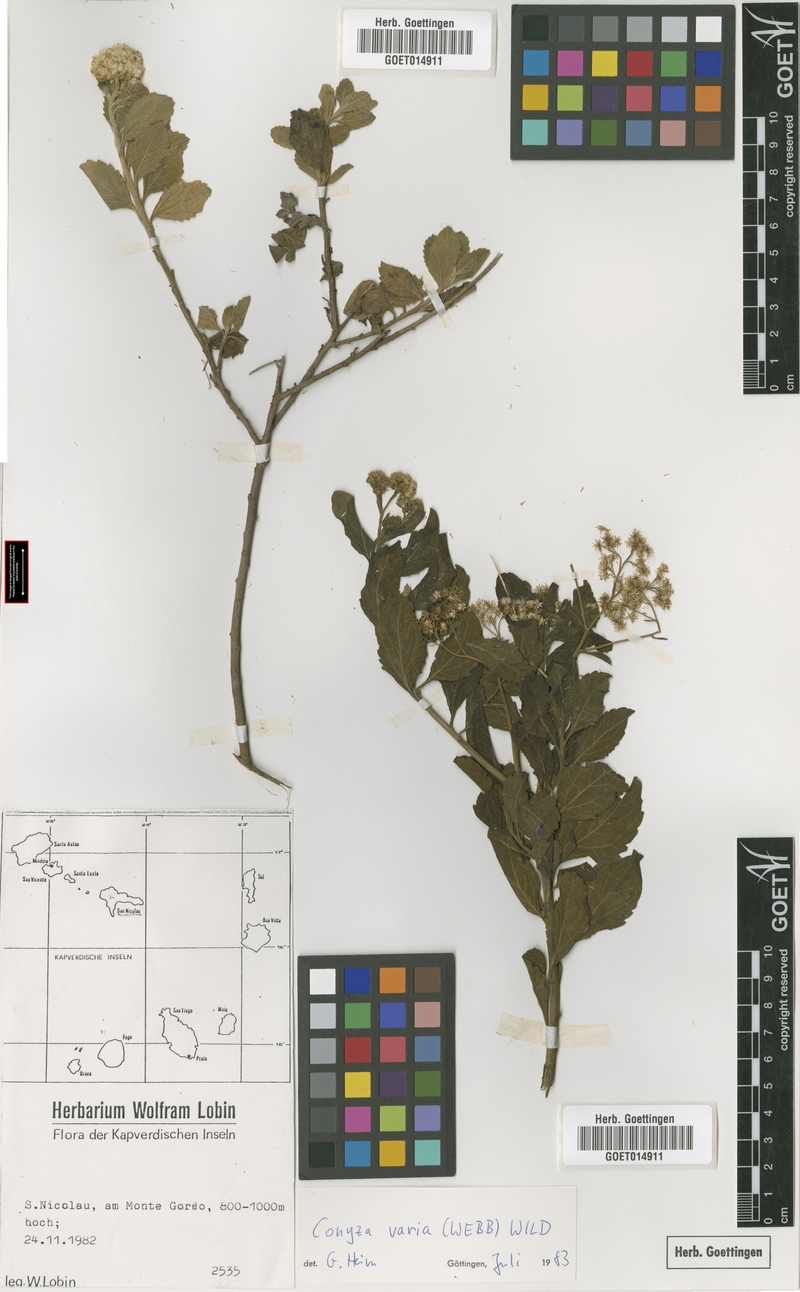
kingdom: Plantae
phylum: Tracheophyta
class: Magnoliopsida
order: Asterales
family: Asteraceae
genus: Nidorella
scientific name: Nidorella varia
